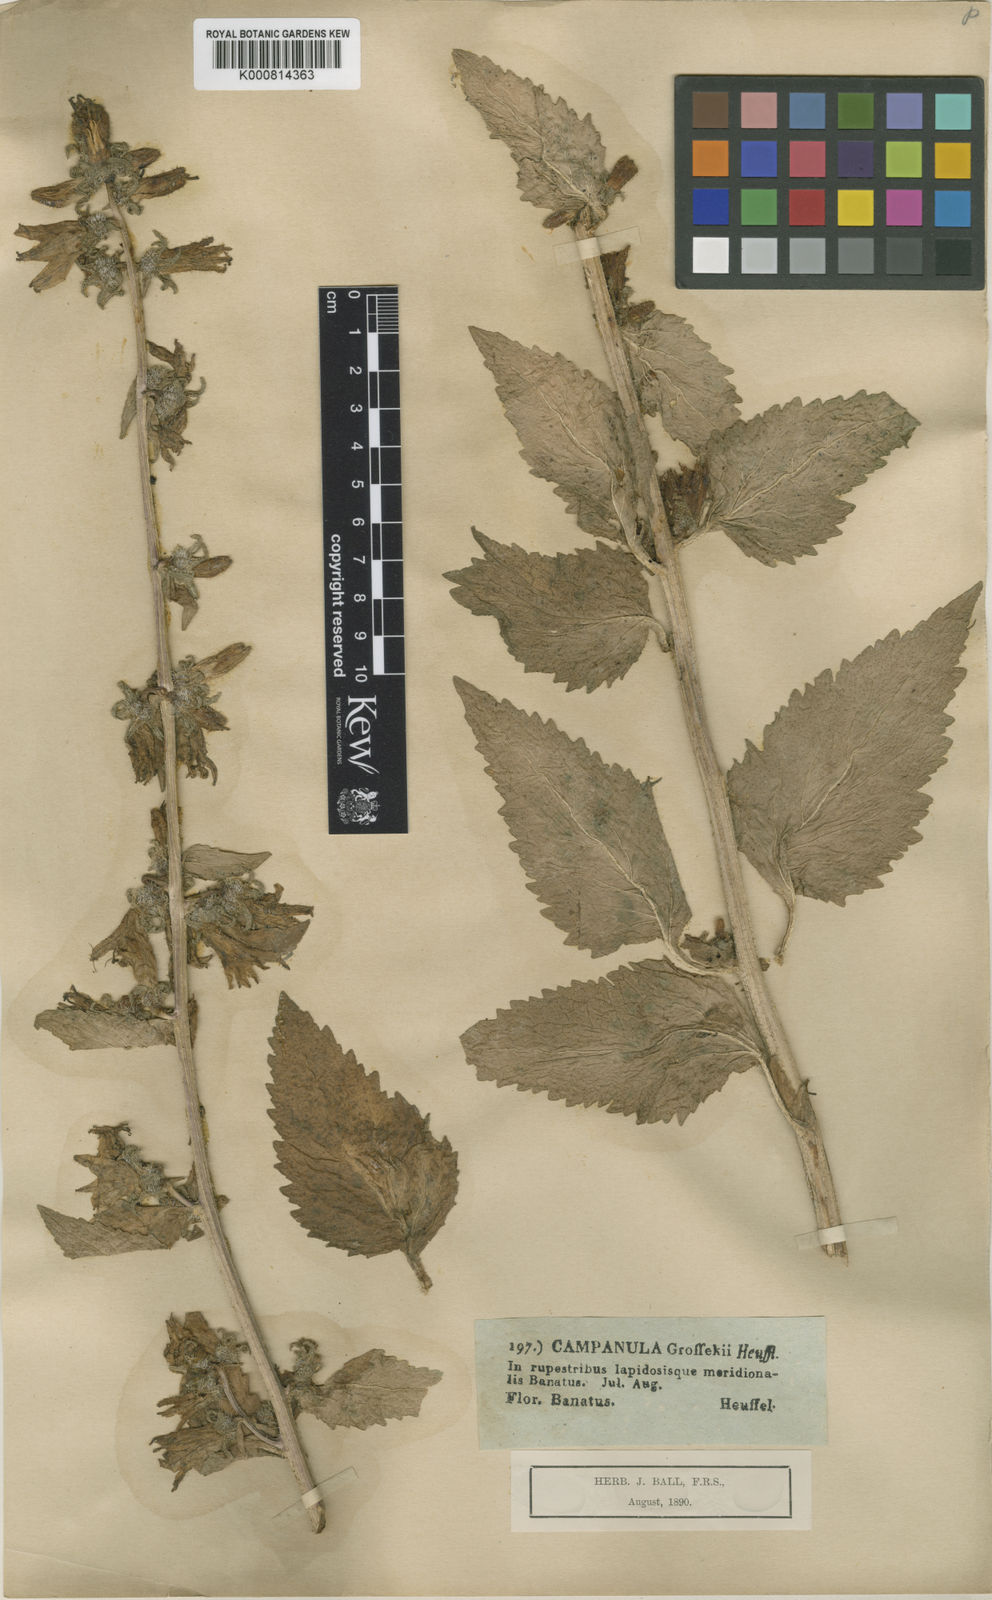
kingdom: Plantae
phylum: Tracheophyta
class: Magnoliopsida
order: Asterales
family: Campanulaceae
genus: Campanula
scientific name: Campanula grossekii
